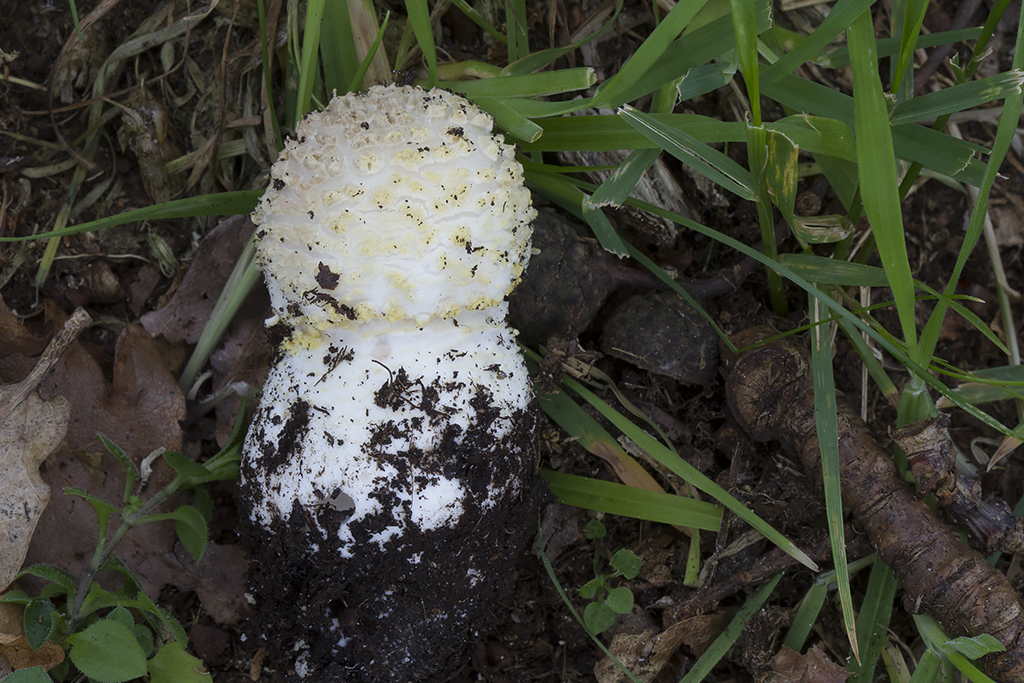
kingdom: Fungi
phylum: Basidiomycota
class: Agaricomycetes
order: Agaricales
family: Amanitaceae
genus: Amanita
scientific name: Amanita franchetii
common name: gulrandet fluesvamp
